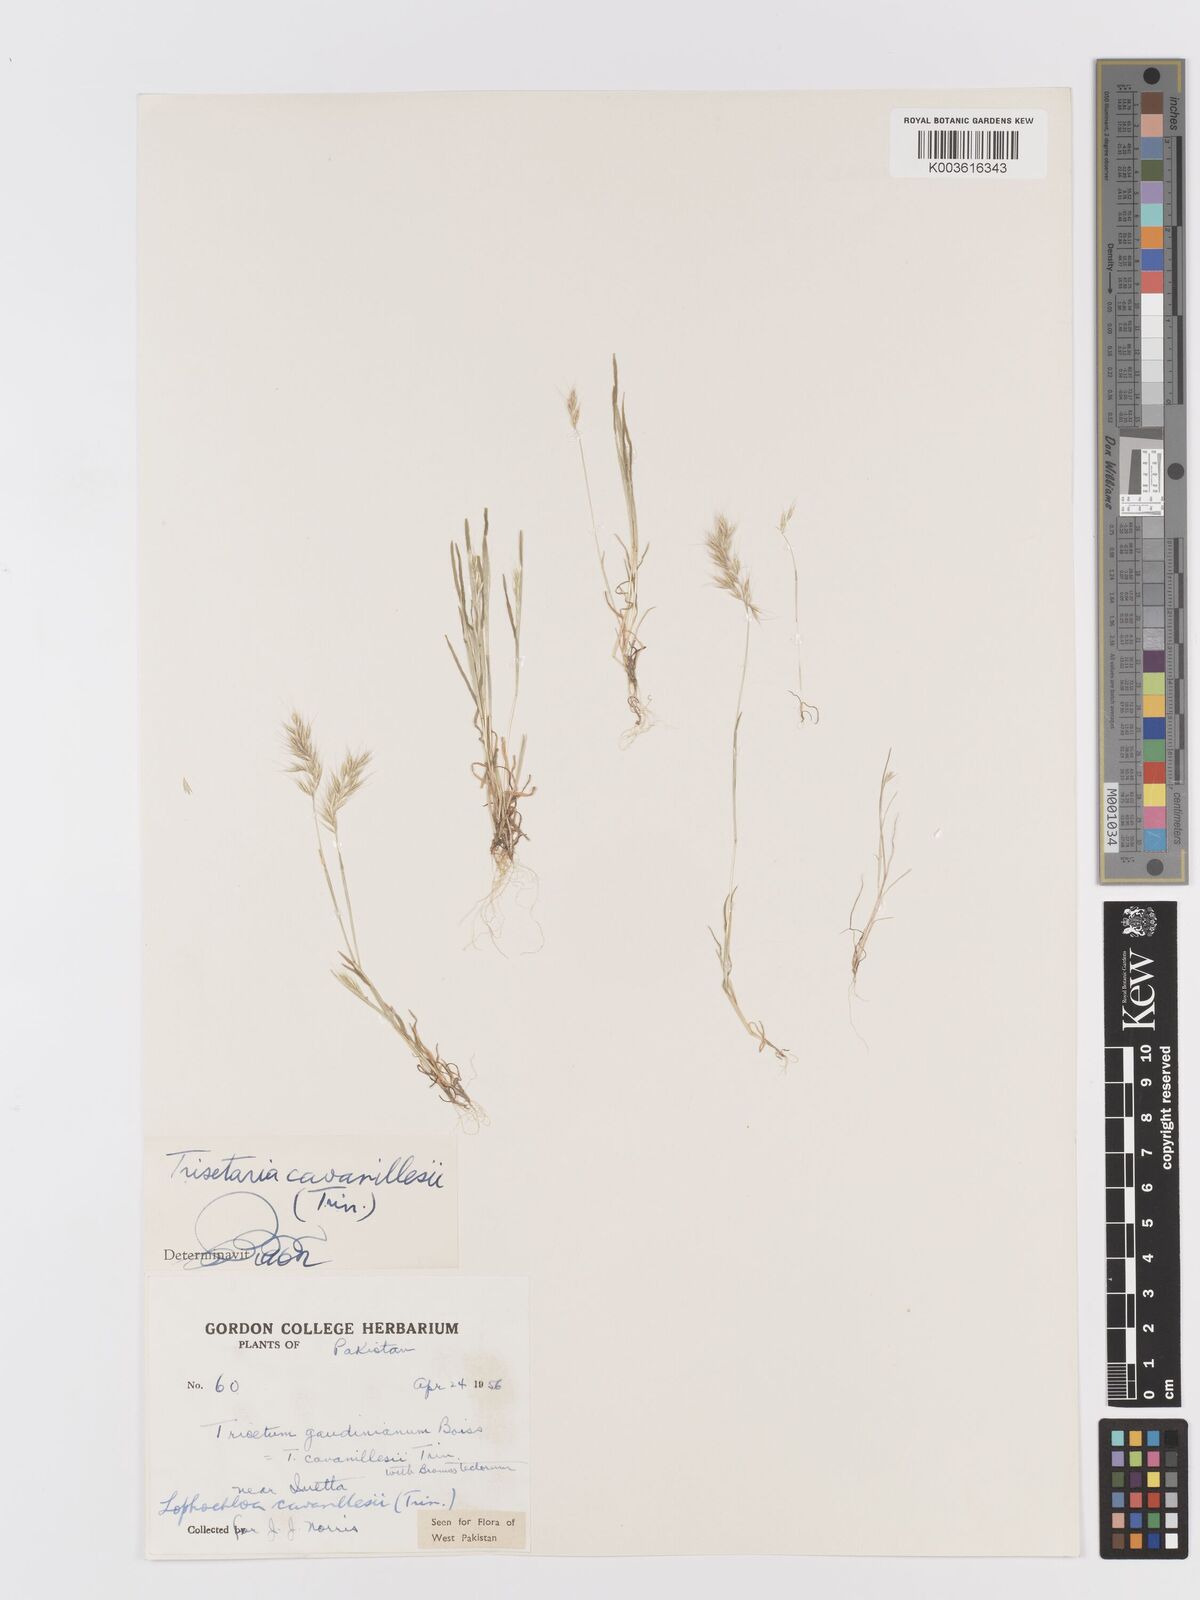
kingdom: Plantae
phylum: Tracheophyta
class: Liliopsida
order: Poales
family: Poaceae
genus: Trisetaria
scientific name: Trisetaria loeflingiana
